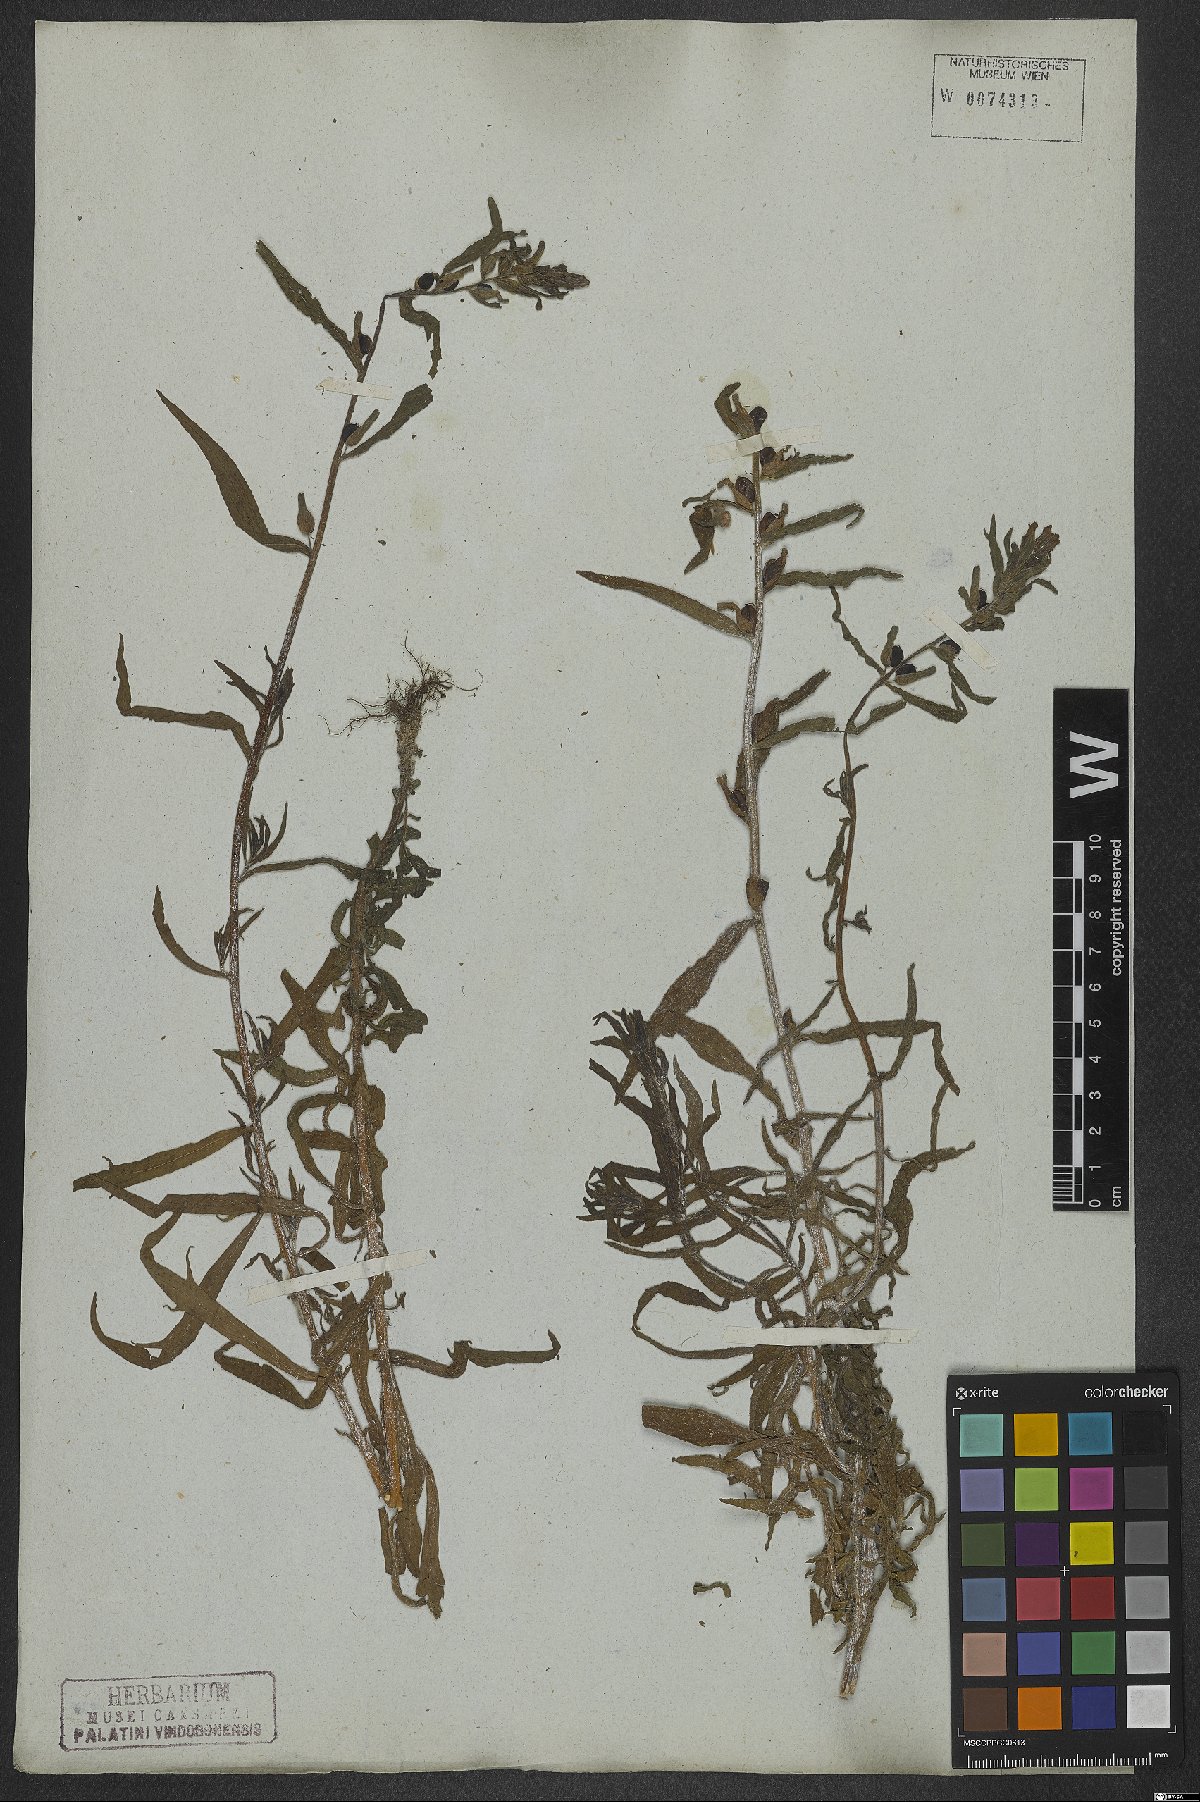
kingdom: Plantae
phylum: Tracheophyta
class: Magnoliopsida
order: Lamiales
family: Orobanchaceae
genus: Castilleja
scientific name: Castilleja arvensis
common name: Indian paintbrush
